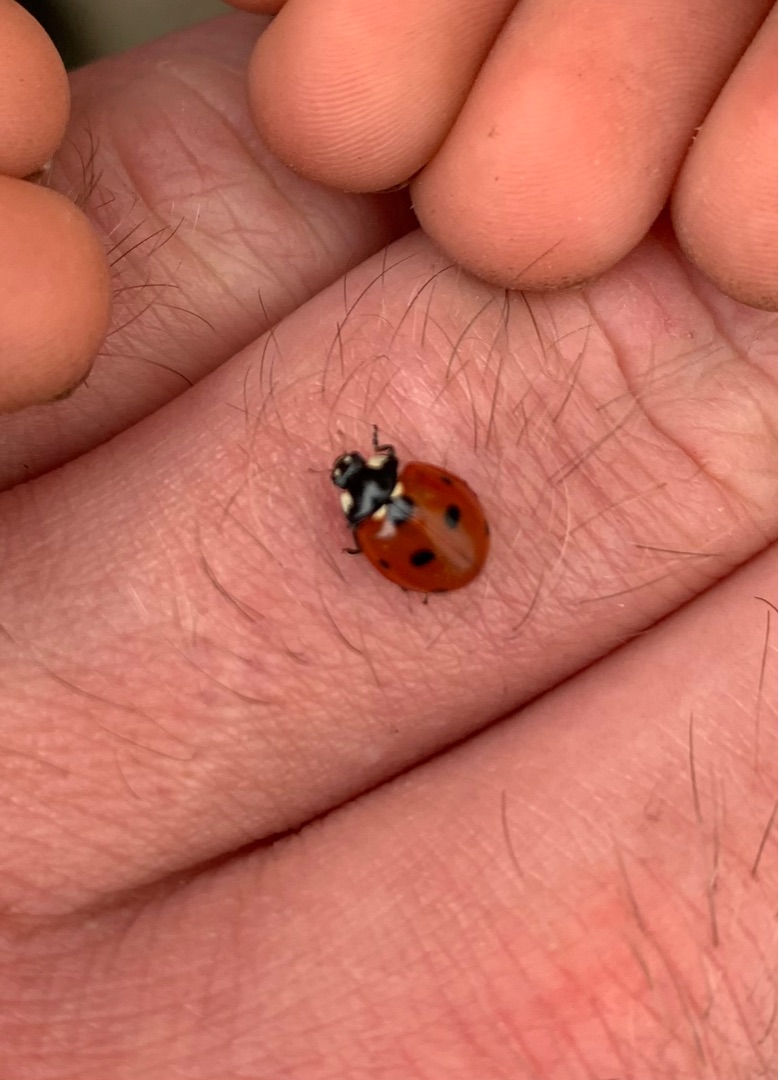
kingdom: Animalia
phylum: Arthropoda
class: Insecta
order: Coleoptera
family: Coccinellidae
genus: Coccinella
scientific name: Coccinella septempunctata
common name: Syvplettet mariehøne
